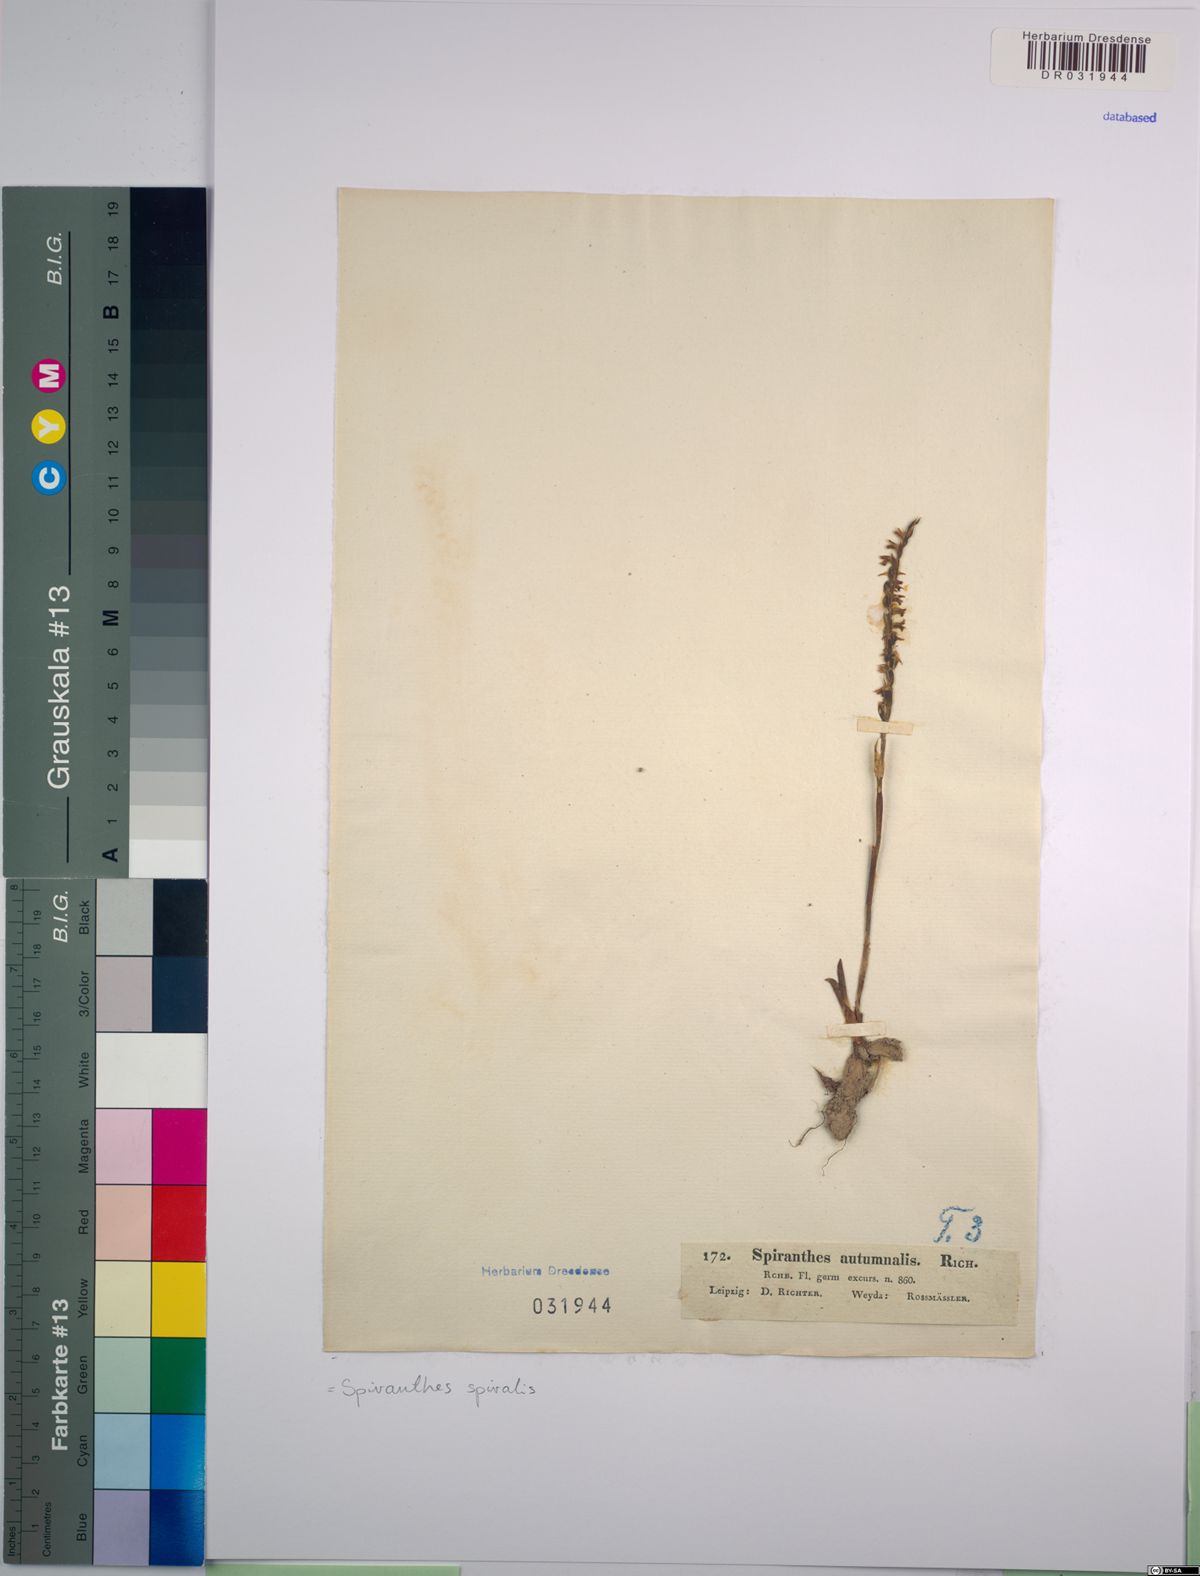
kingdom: Plantae
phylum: Tracheophyta
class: Liliopsida
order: Asparagales
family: Orchidaceae
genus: Spiranthes
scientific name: Spiranthes spiralis
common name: Autumn lady's-tresses
